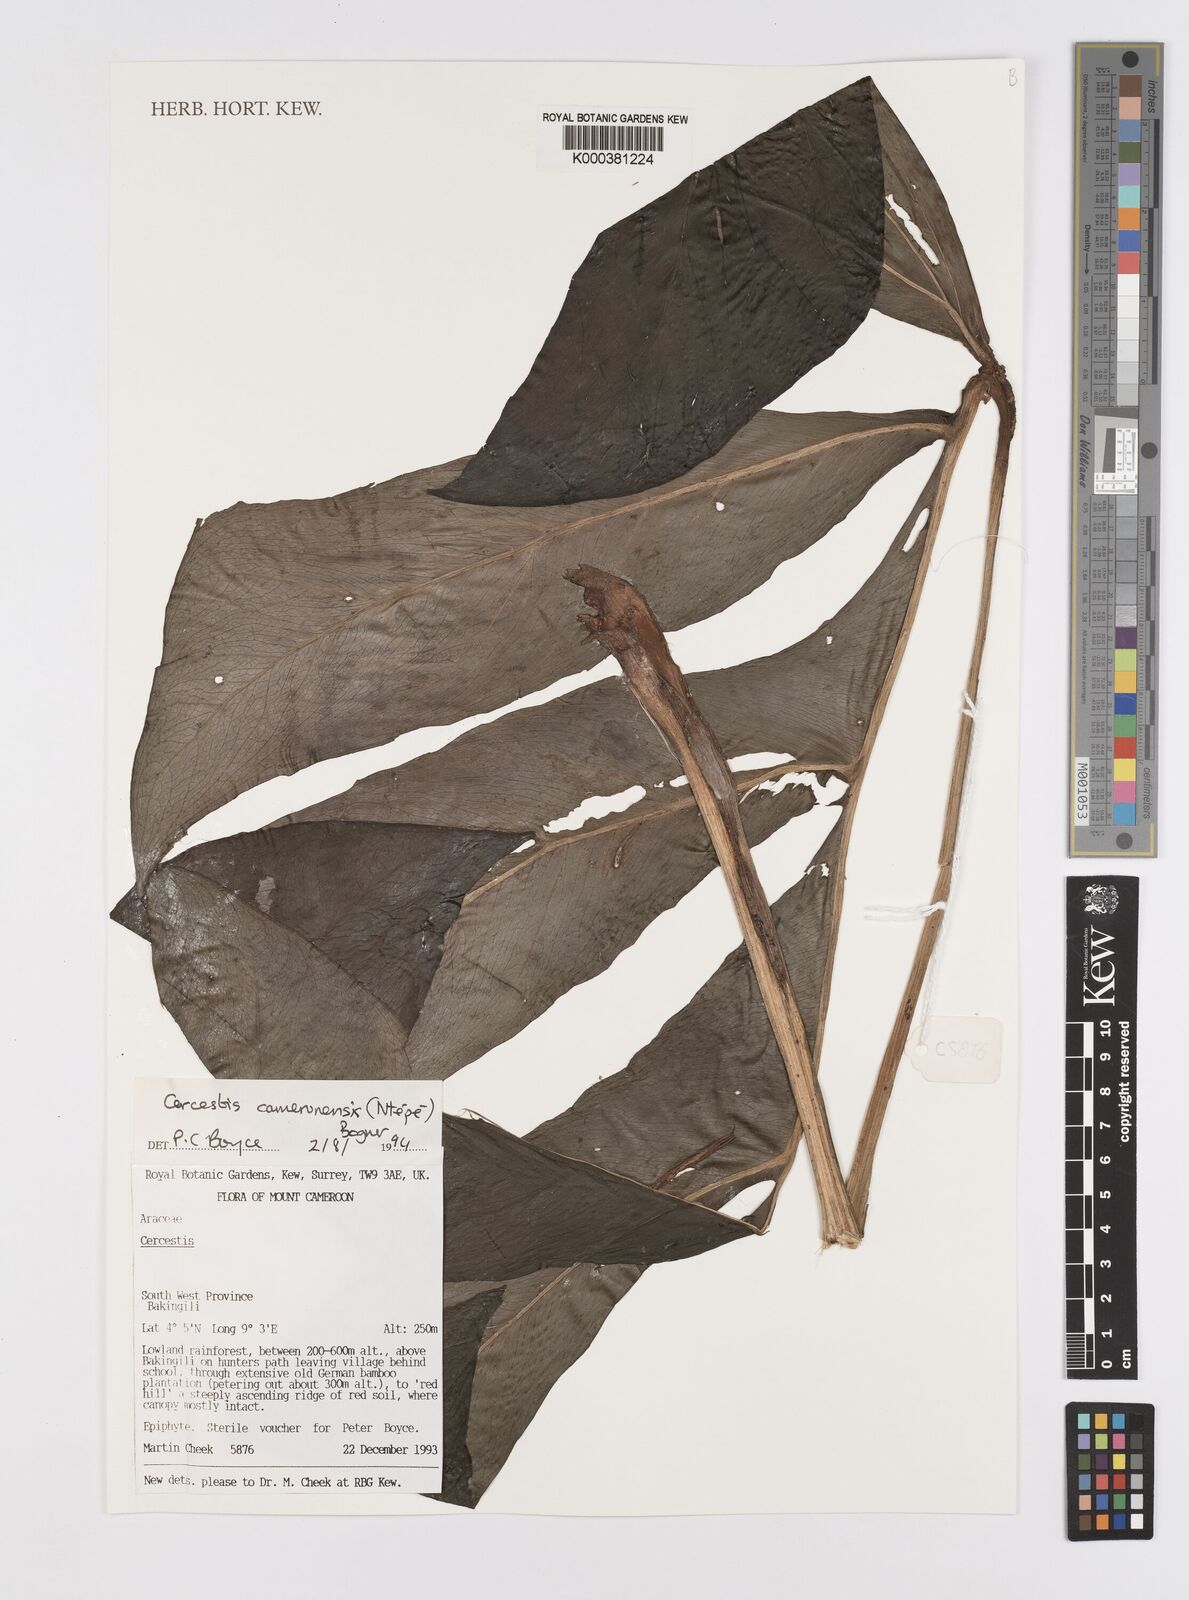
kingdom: Plantae
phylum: Tracheophyta
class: Liliopsida
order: Alismatales
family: Araceae
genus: Cercestis
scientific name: Cercestis camerunensis
